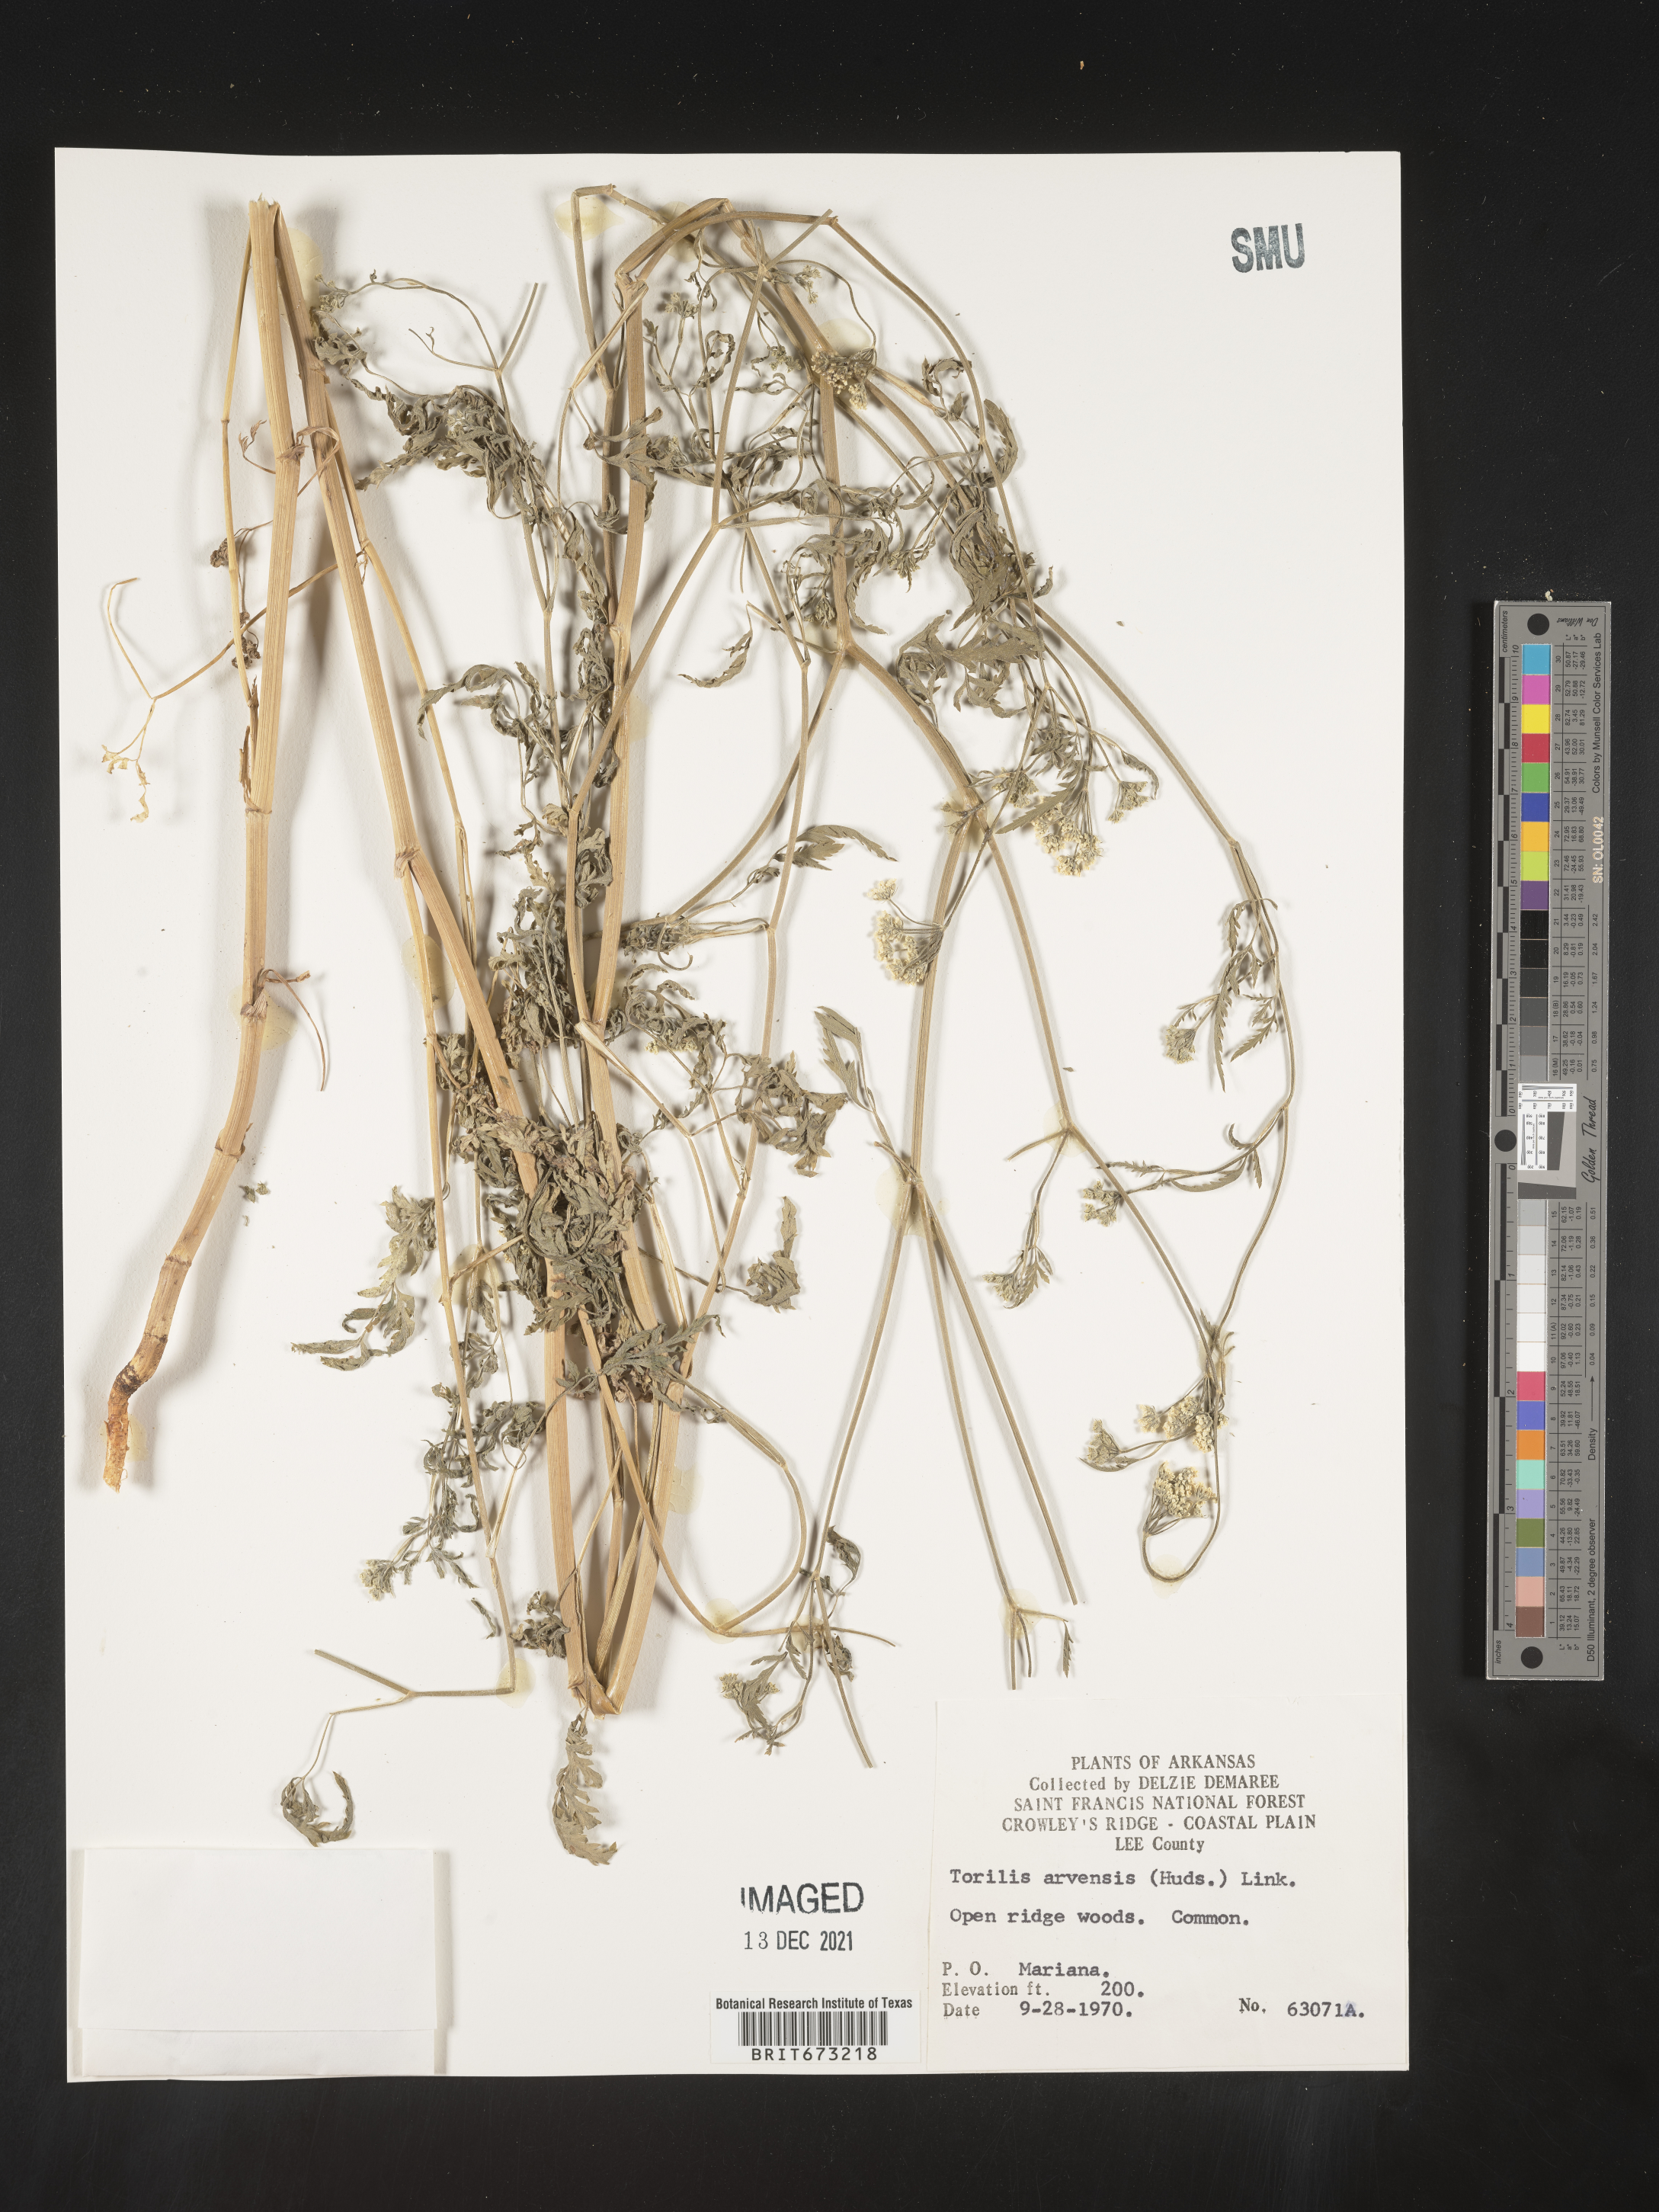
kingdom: Plantae
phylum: Tracheophyta
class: Magnoliopsida
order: Apiales
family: Apiaceae
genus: Torilis
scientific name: Torilis arvensis
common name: Spreading hedge-parsley
